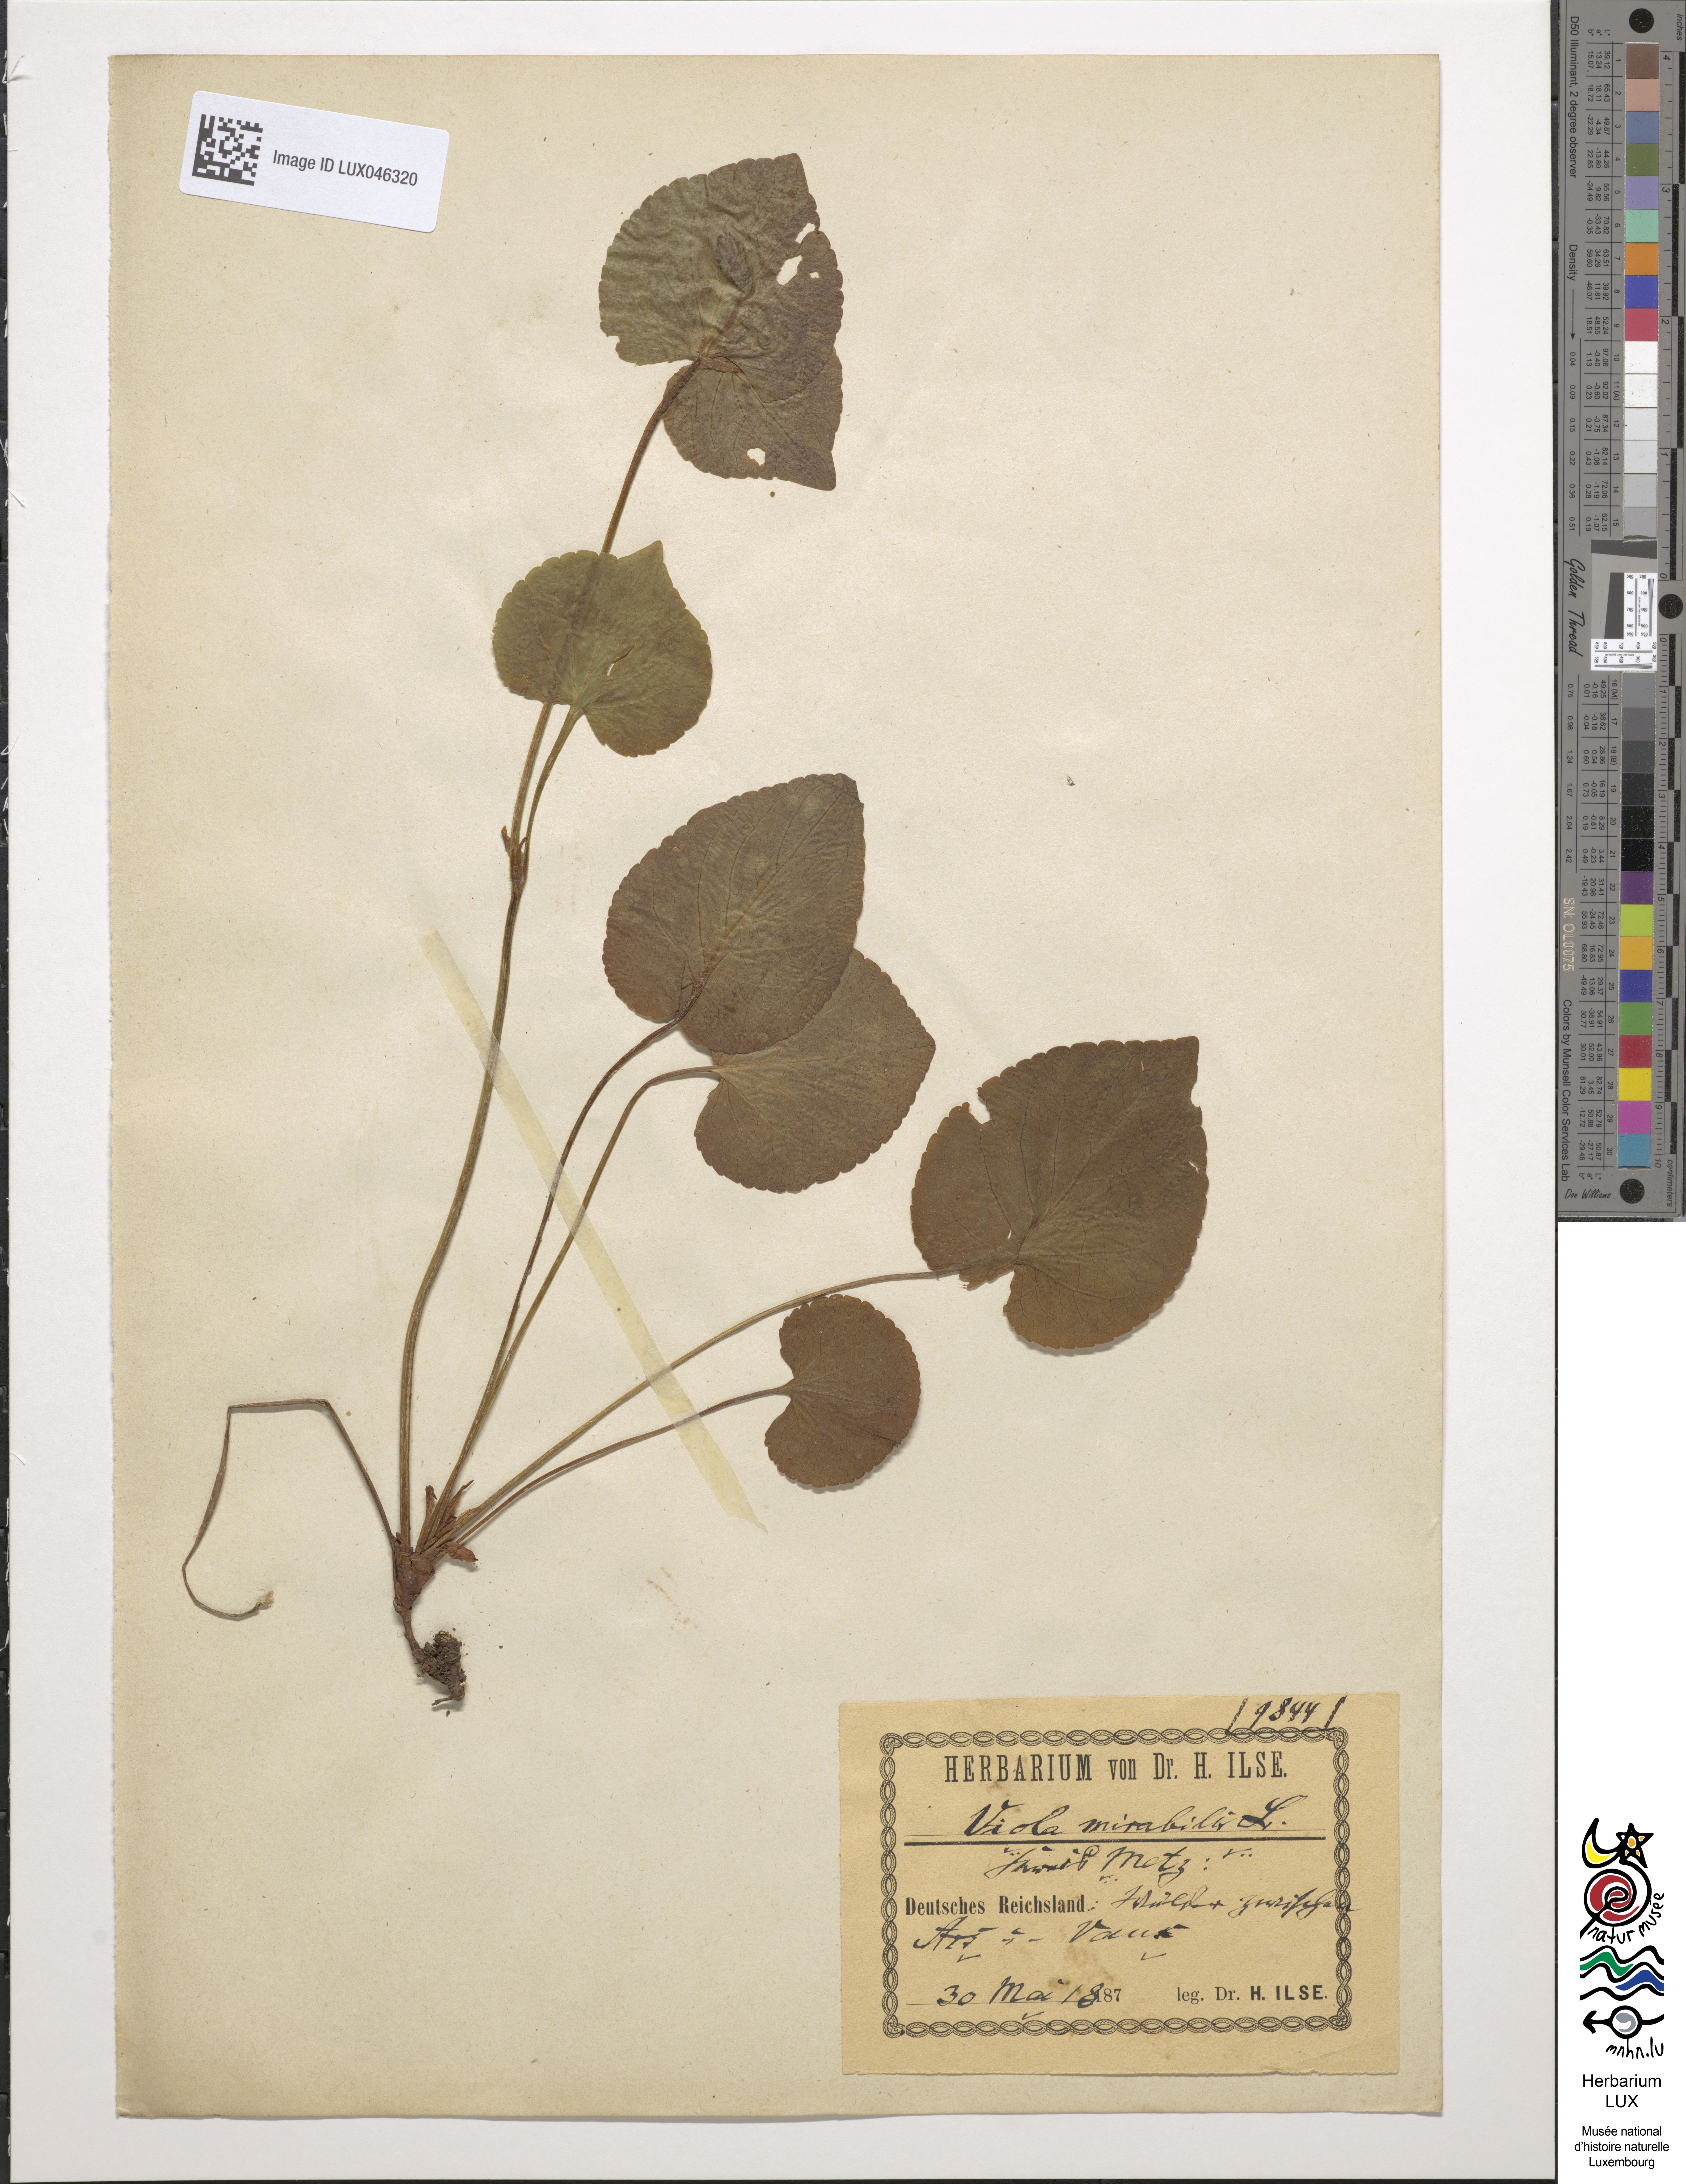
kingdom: Plantae
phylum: Tracheophyta
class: Magnoliopsida
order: Malpighiales
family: Violaceae
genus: Viola
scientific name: Viola mirabilis
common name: Wonder violet
